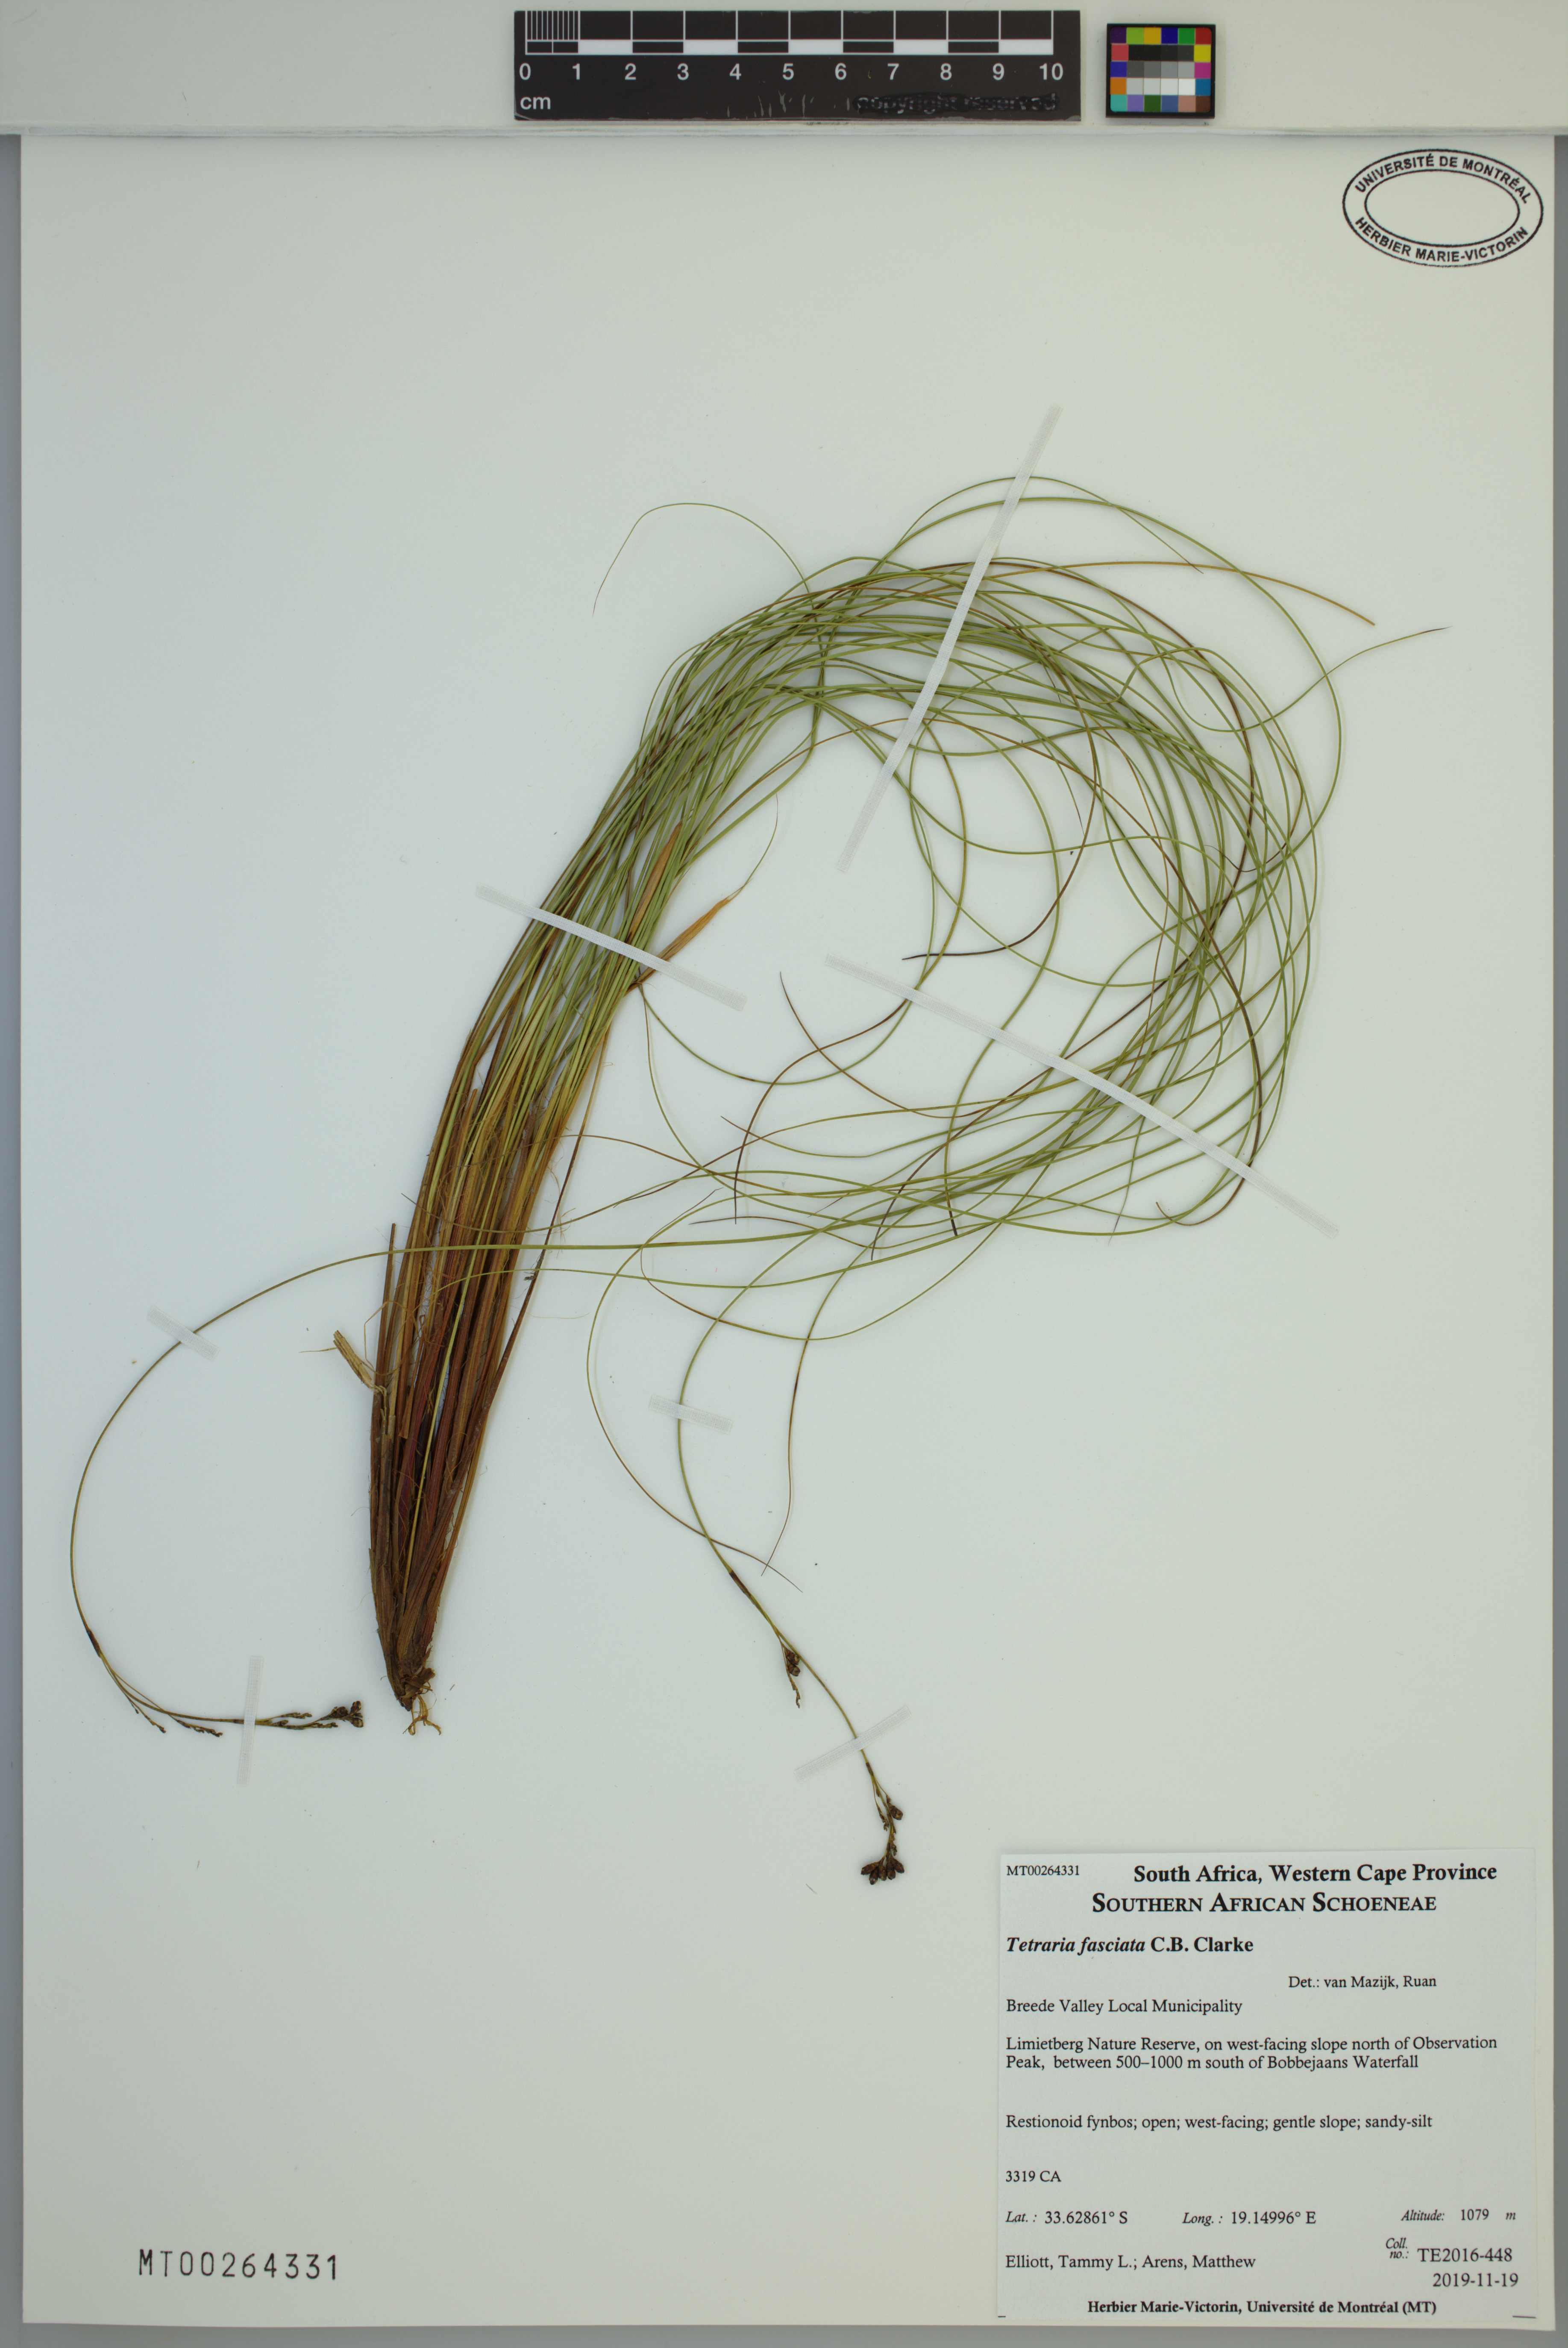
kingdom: Plantae
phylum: Tracheophyta
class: Liliopsida
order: Poales
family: Cyperaceae
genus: Tetraria
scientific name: Tetraria fasciata
